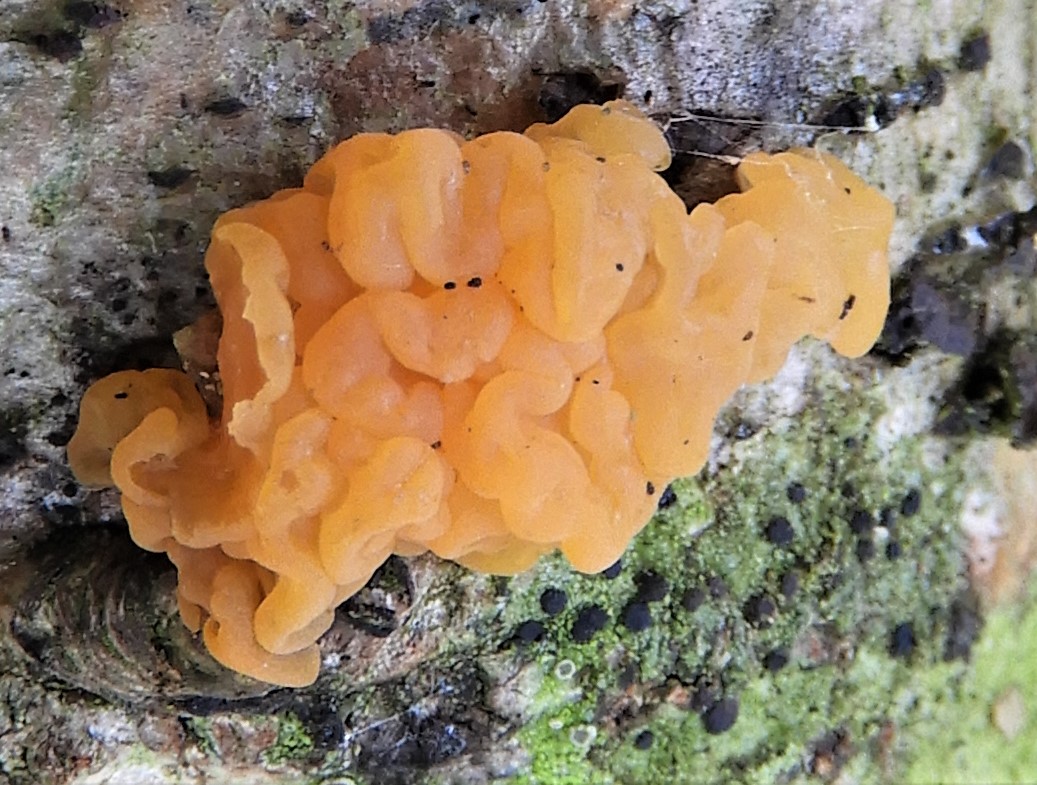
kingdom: Fungi
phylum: Basidiomycota
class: Dacrymycetes
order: Dacrymycetales
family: Dacrymycetaceae
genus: Dacrymyces
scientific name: Dacrymyces lacrymalis
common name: rynket tåresvamp
